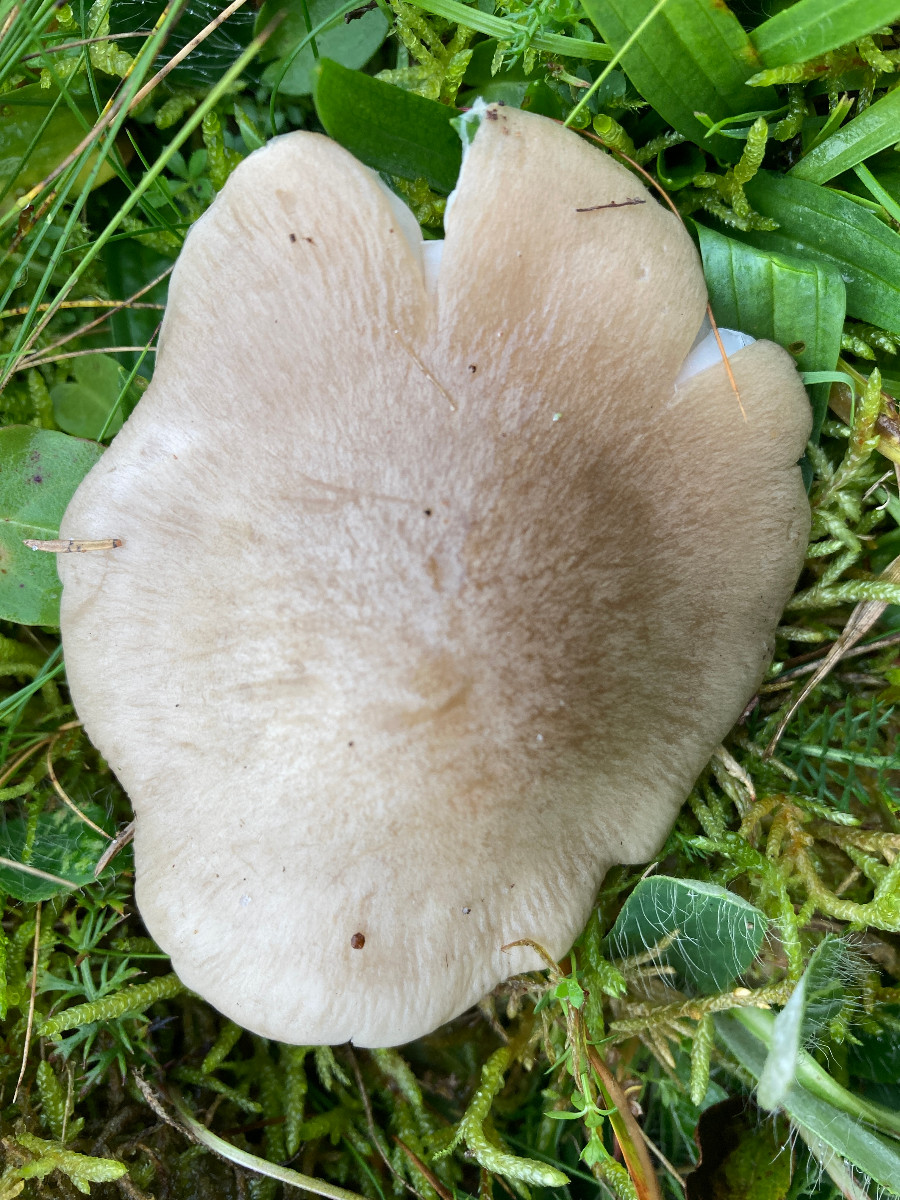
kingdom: Fungi
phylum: Basidiomycota
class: Agaricomycetes
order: Agaricales
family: Entolomataceae
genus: Entoloma
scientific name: Entoloma prunuloides
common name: mel-rødblad
